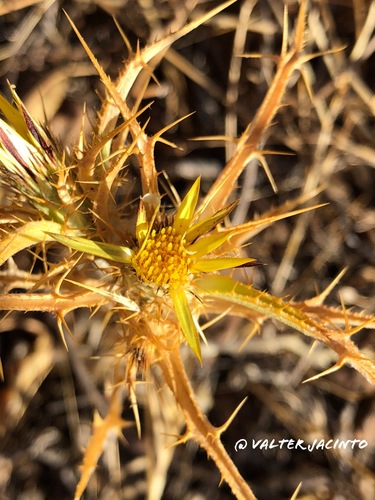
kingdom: Plantae
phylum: Tracheophyta
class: Magnoliopsida
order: Asterales
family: Asteraceae
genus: Carlina
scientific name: Carlina racemosa
